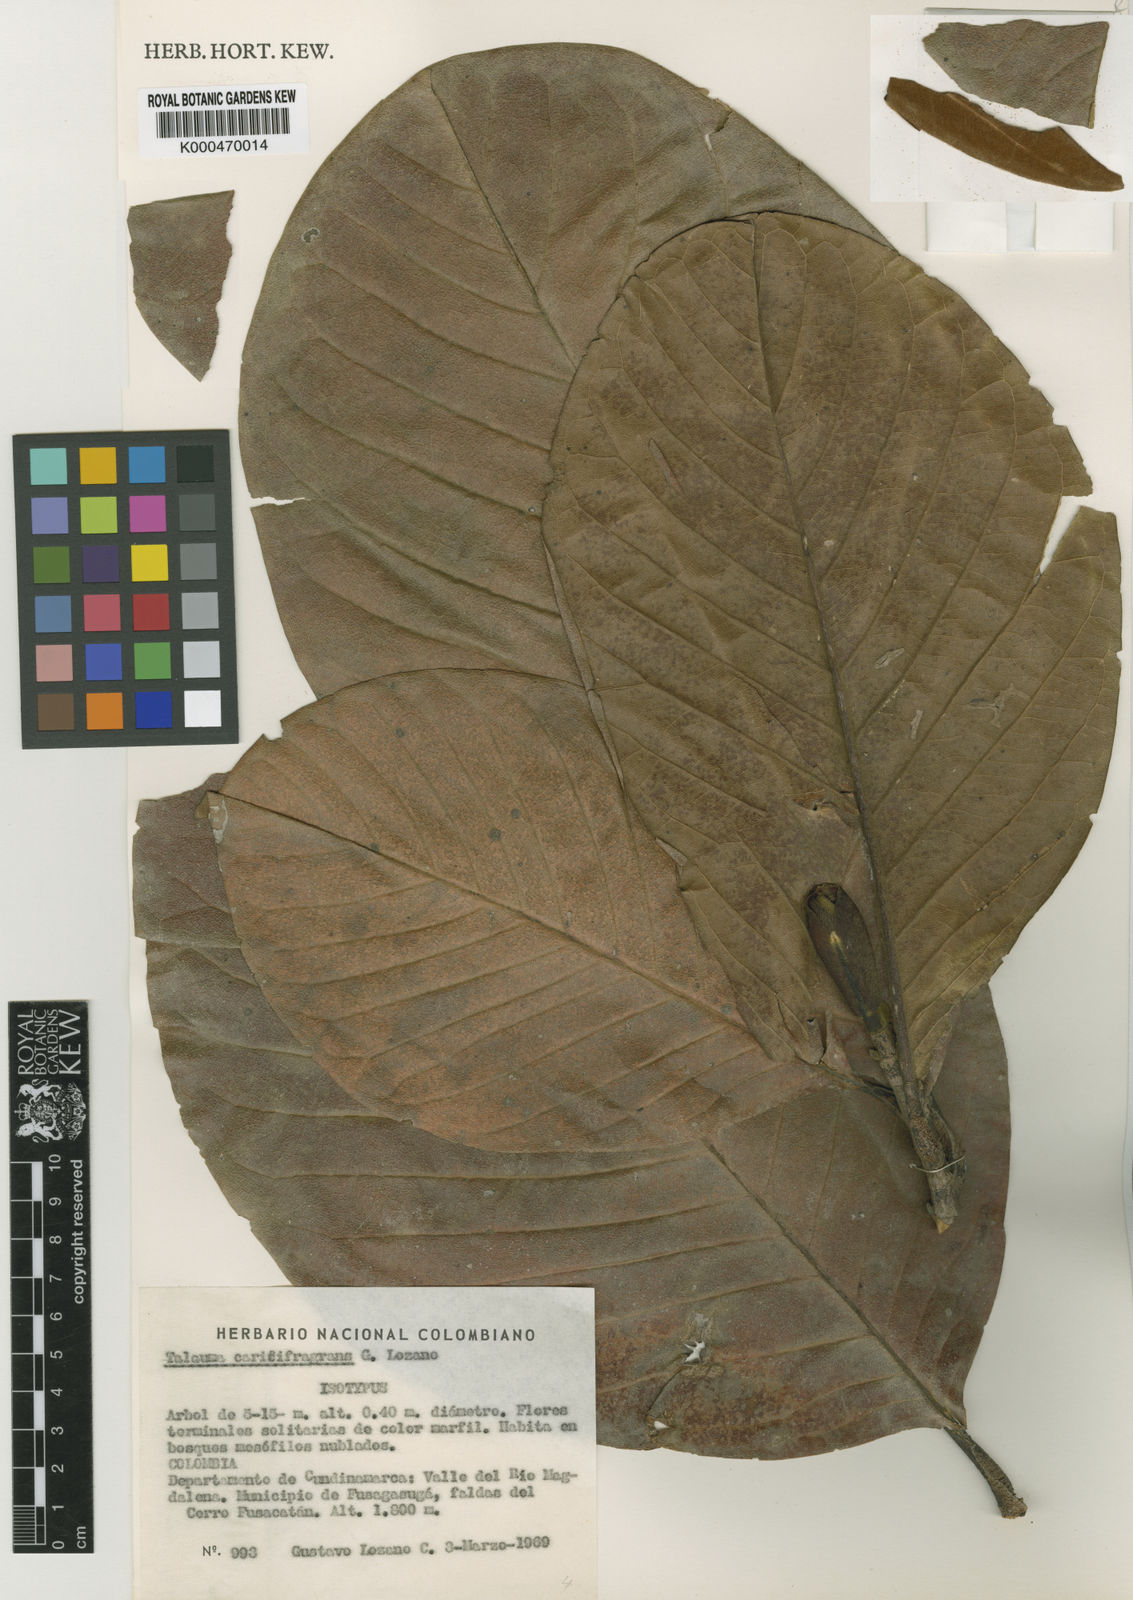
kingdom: Plantae
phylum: Tracheophyta
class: Magnoliopsida
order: Magnoliales
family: Magnoliaceae
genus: Magnolia
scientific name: Magnolia
